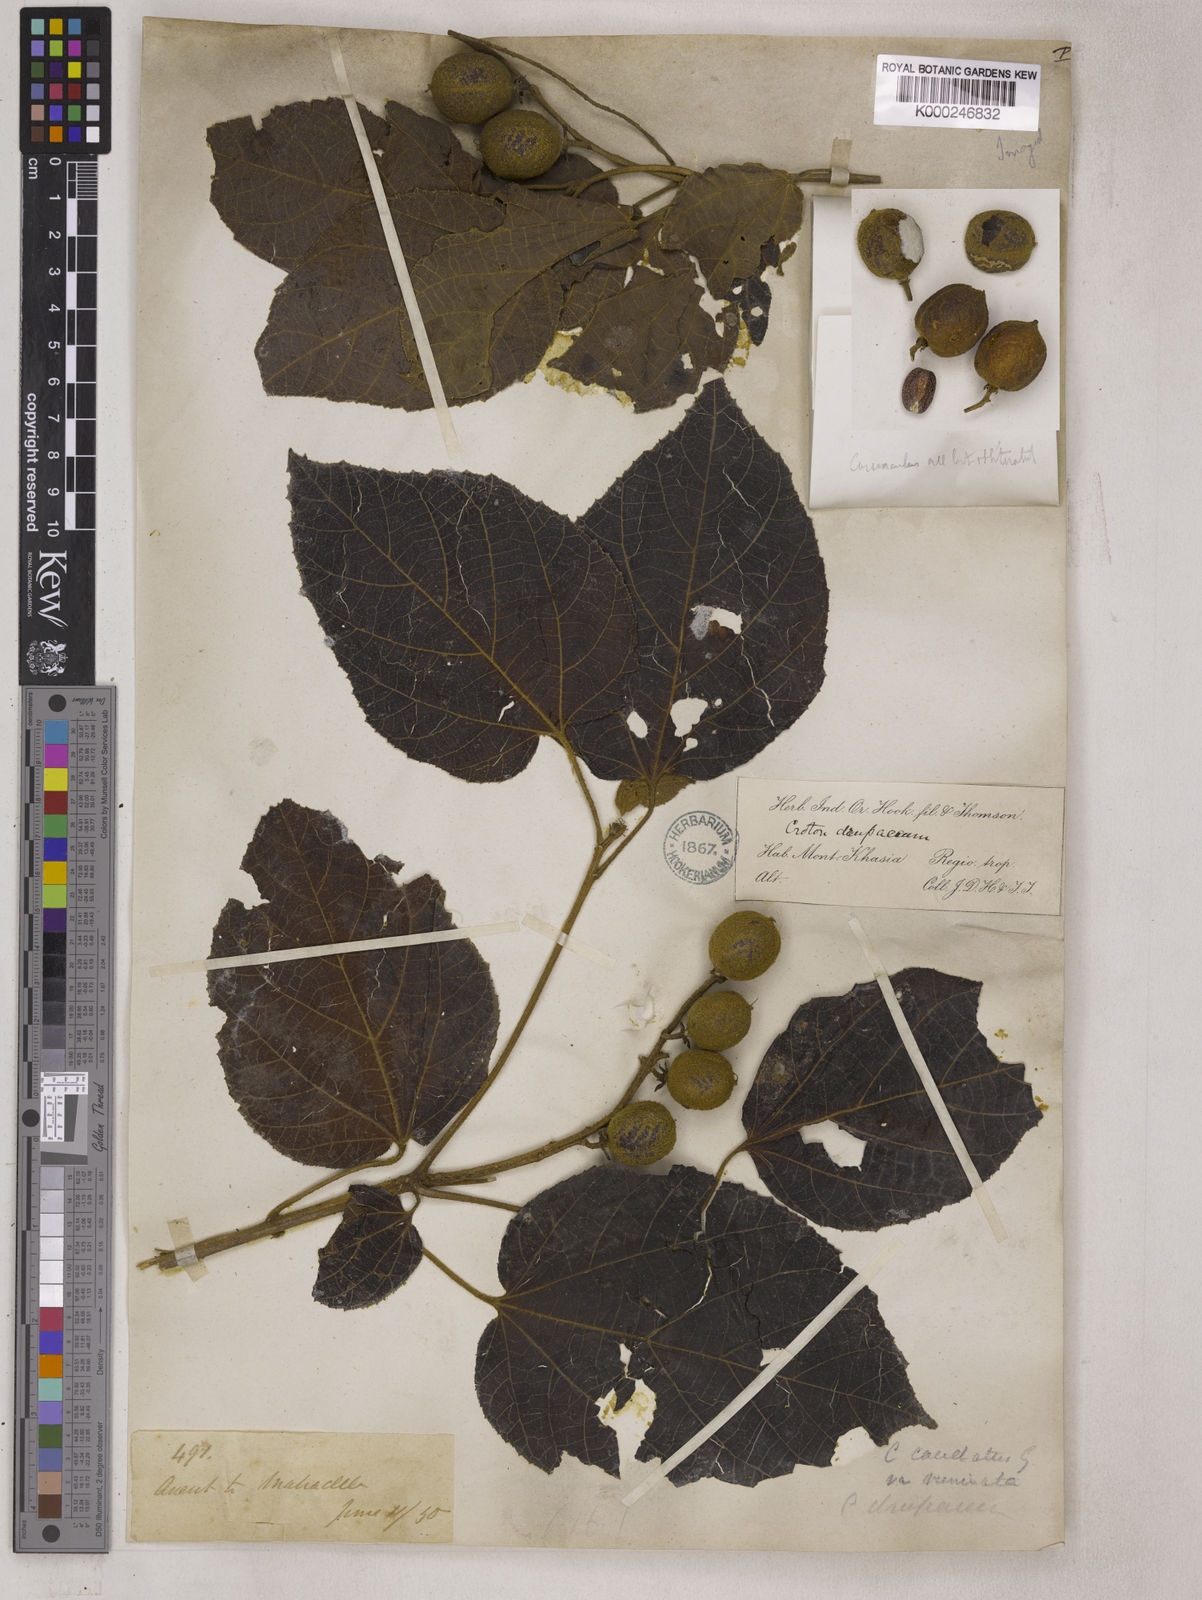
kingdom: Plantae
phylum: Tracheophyta
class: Magnoliopsida
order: Malpighiales
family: Euphorbiaceae
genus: Croton
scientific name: Croton caudatus
